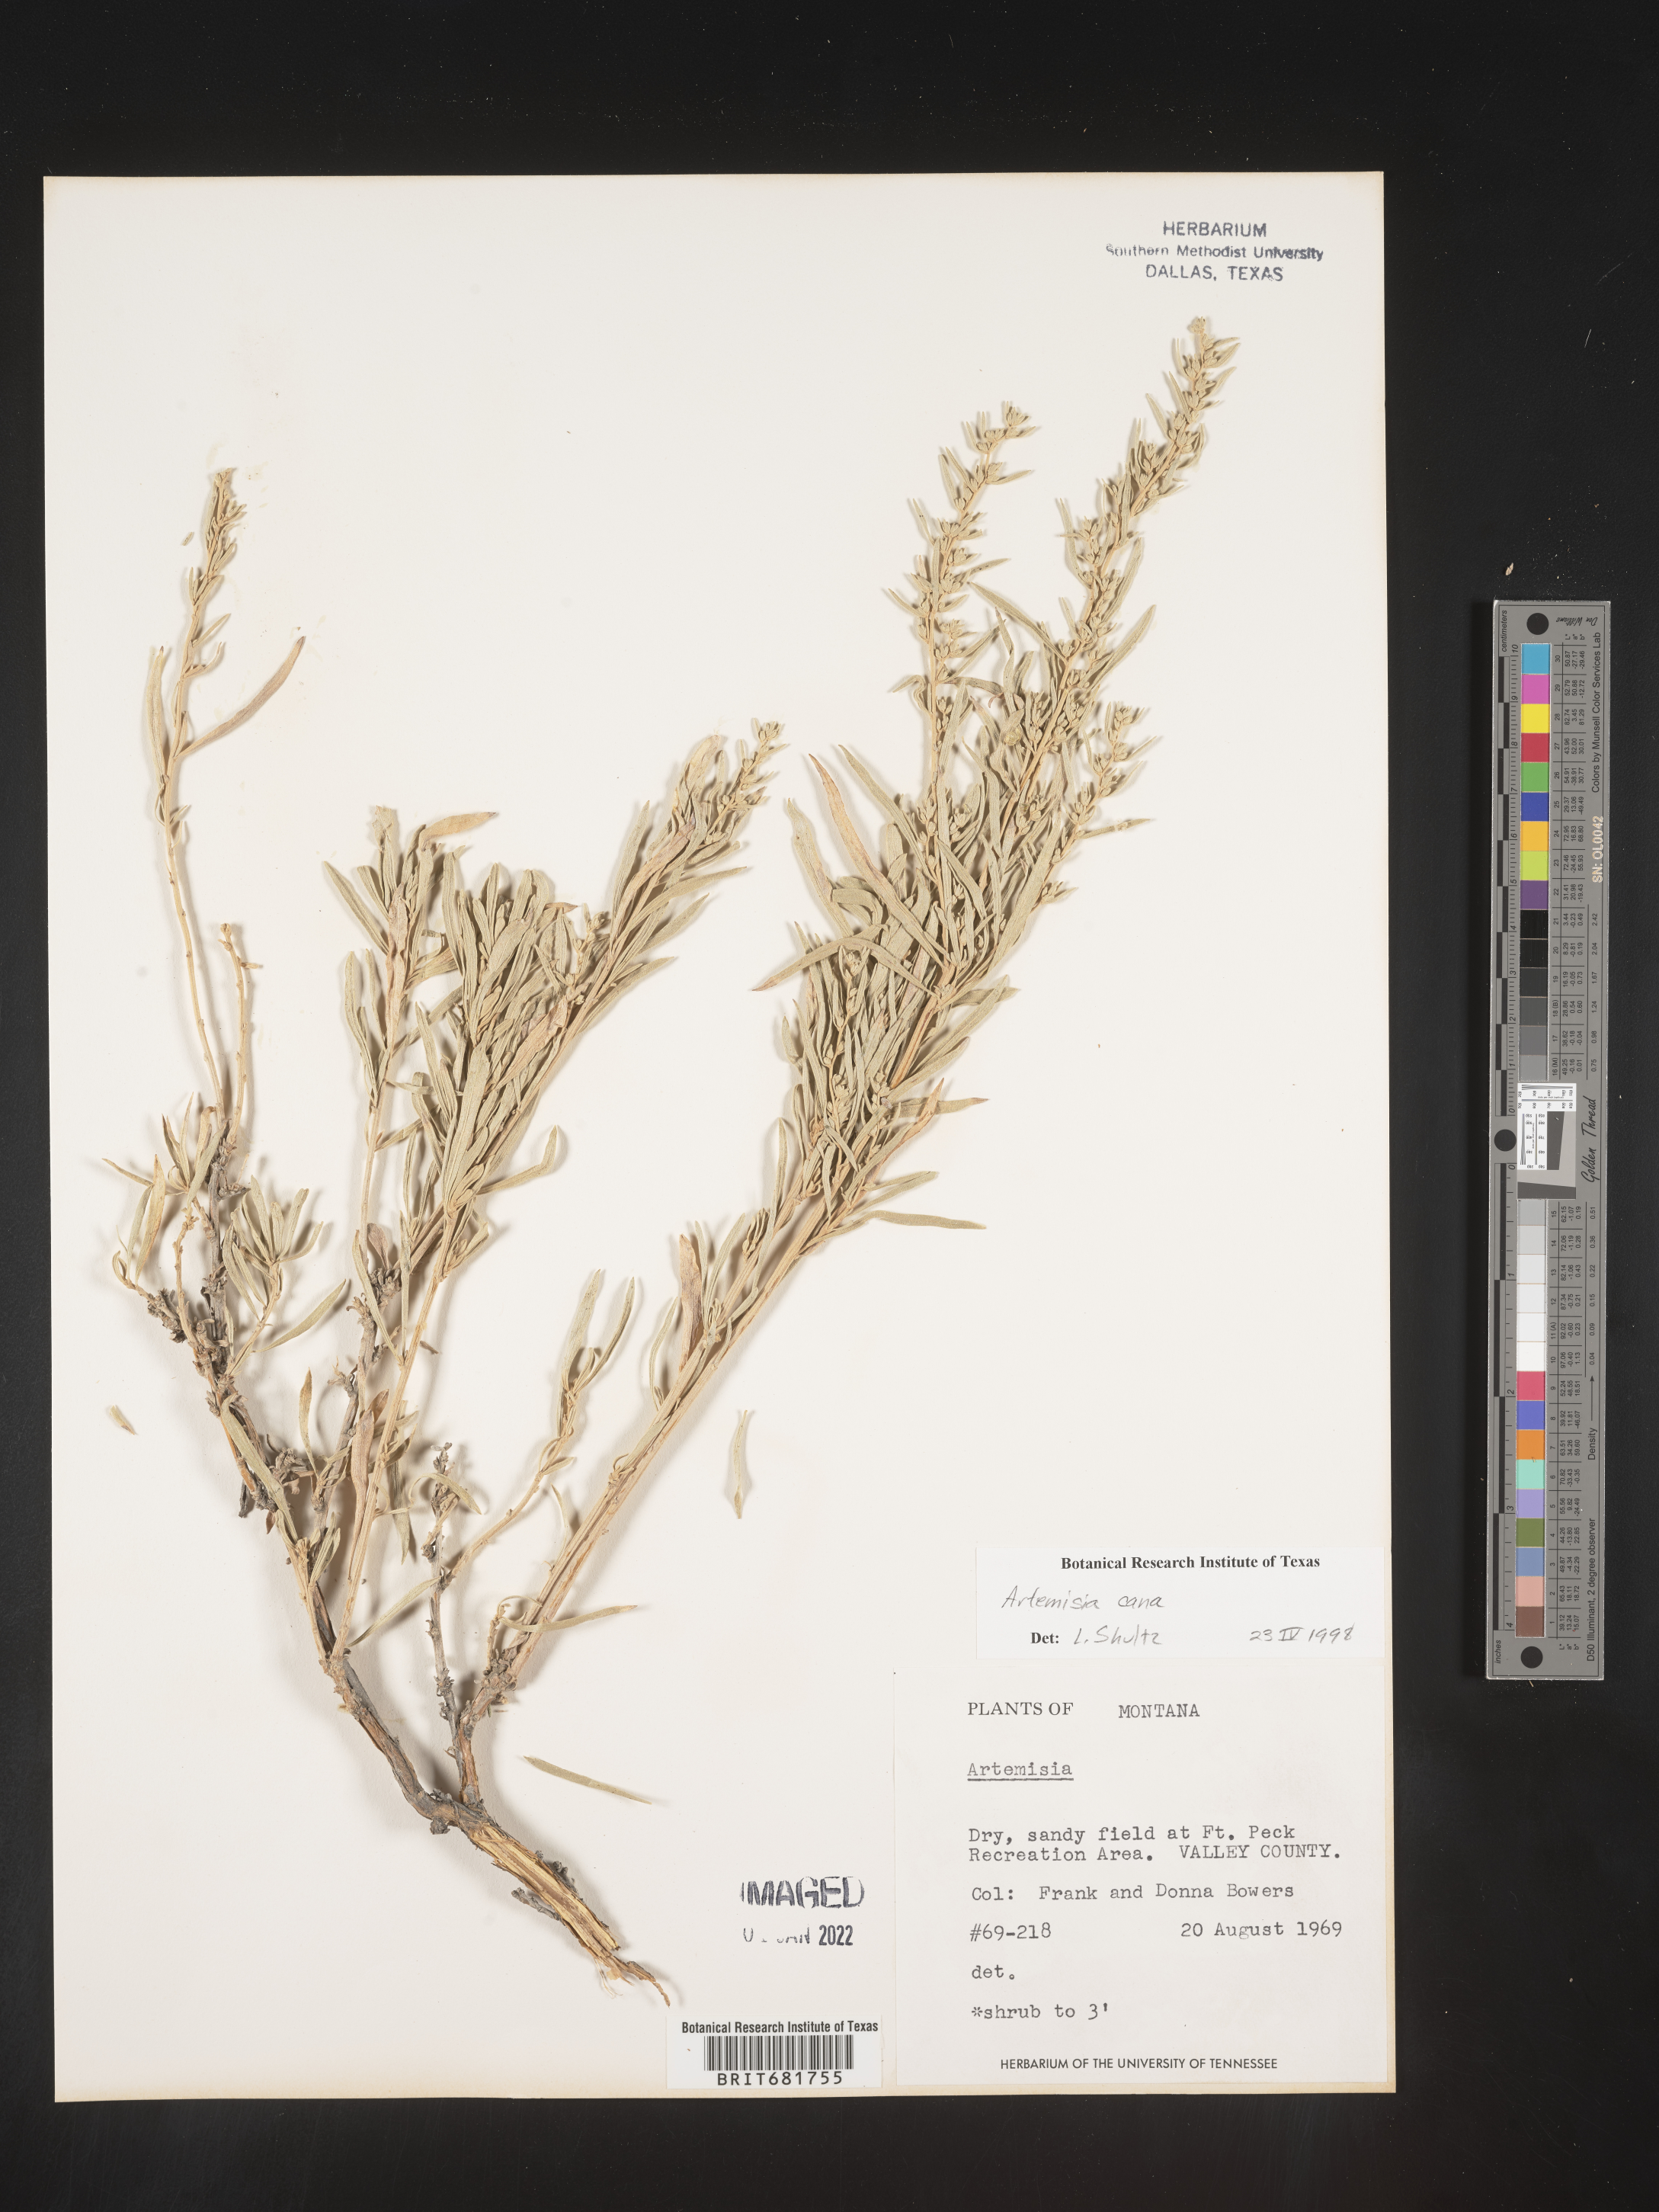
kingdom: Plantae
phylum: Tracheophyta
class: Magnoliopsida
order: Asterales
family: Asteraceae
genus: Artemisia
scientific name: Artemisia cana
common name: Silver sagebrush
